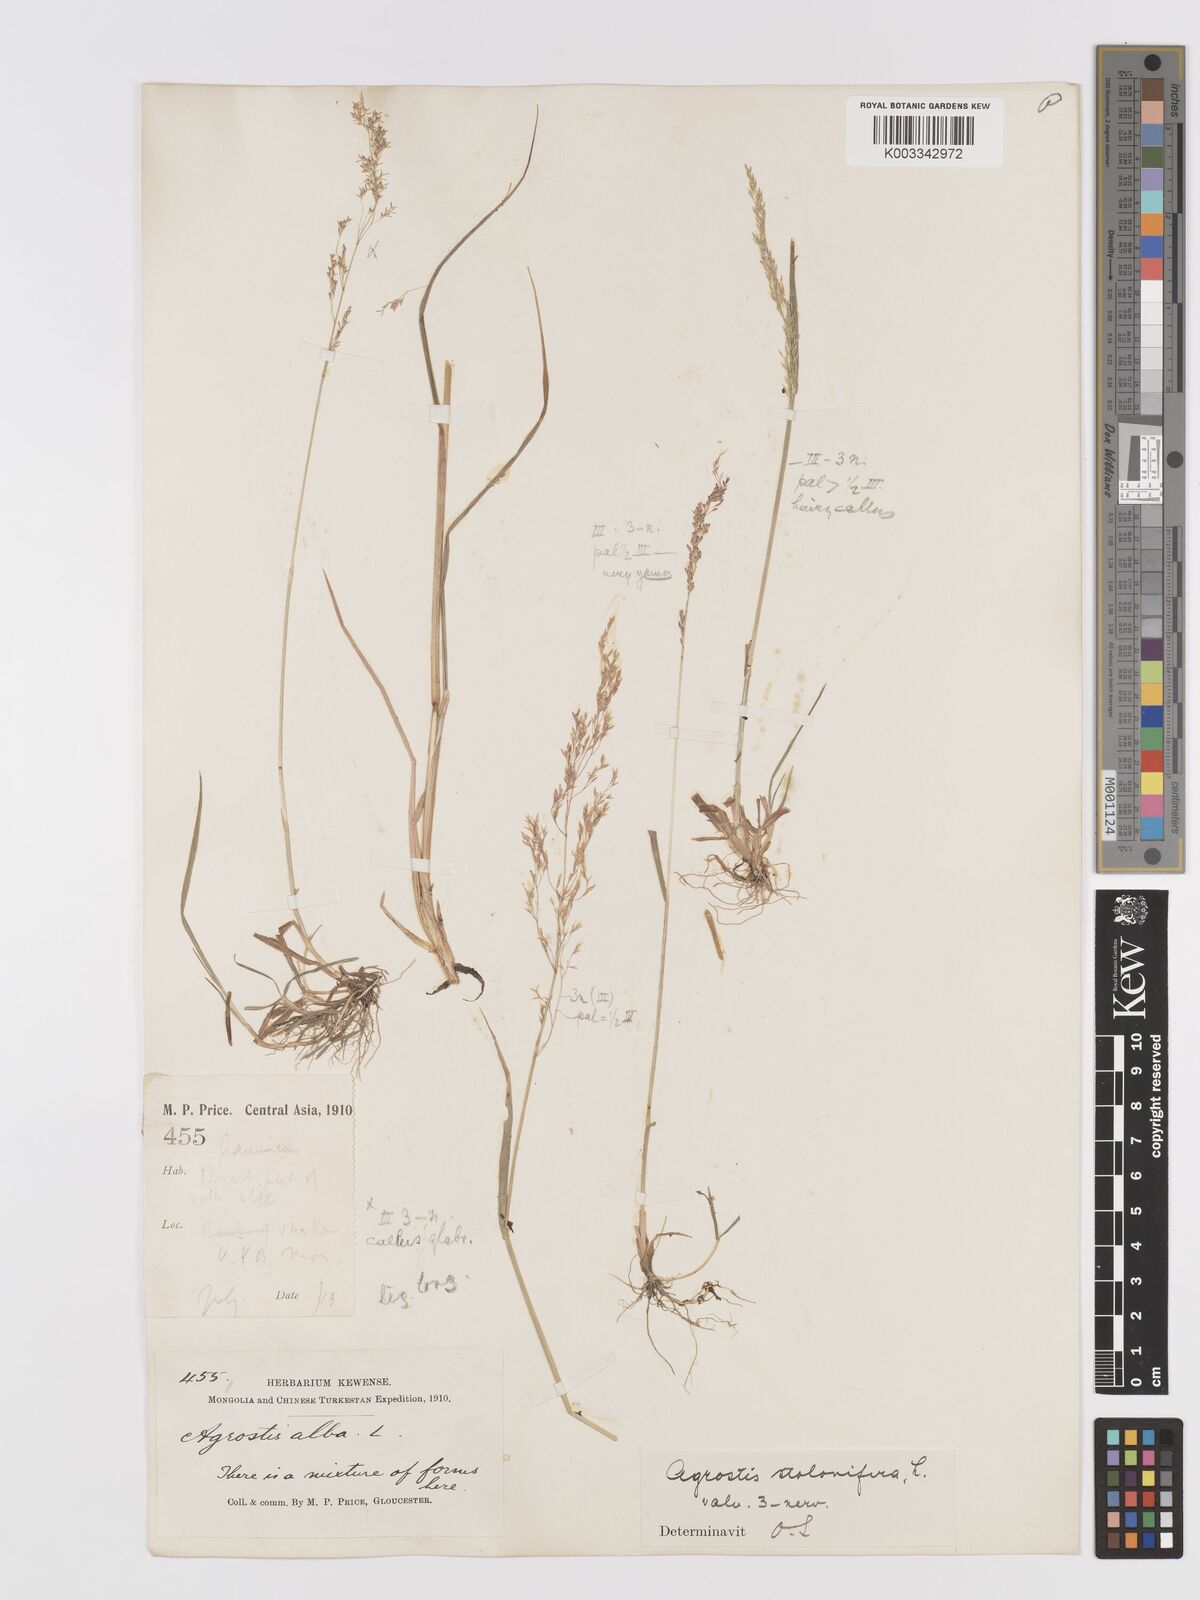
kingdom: Plantae
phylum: Tracheophyta
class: Liliopsida
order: Poales
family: Poaceae
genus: Agrostis
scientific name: Agrostis stolonifera
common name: Creeping bentgrass
